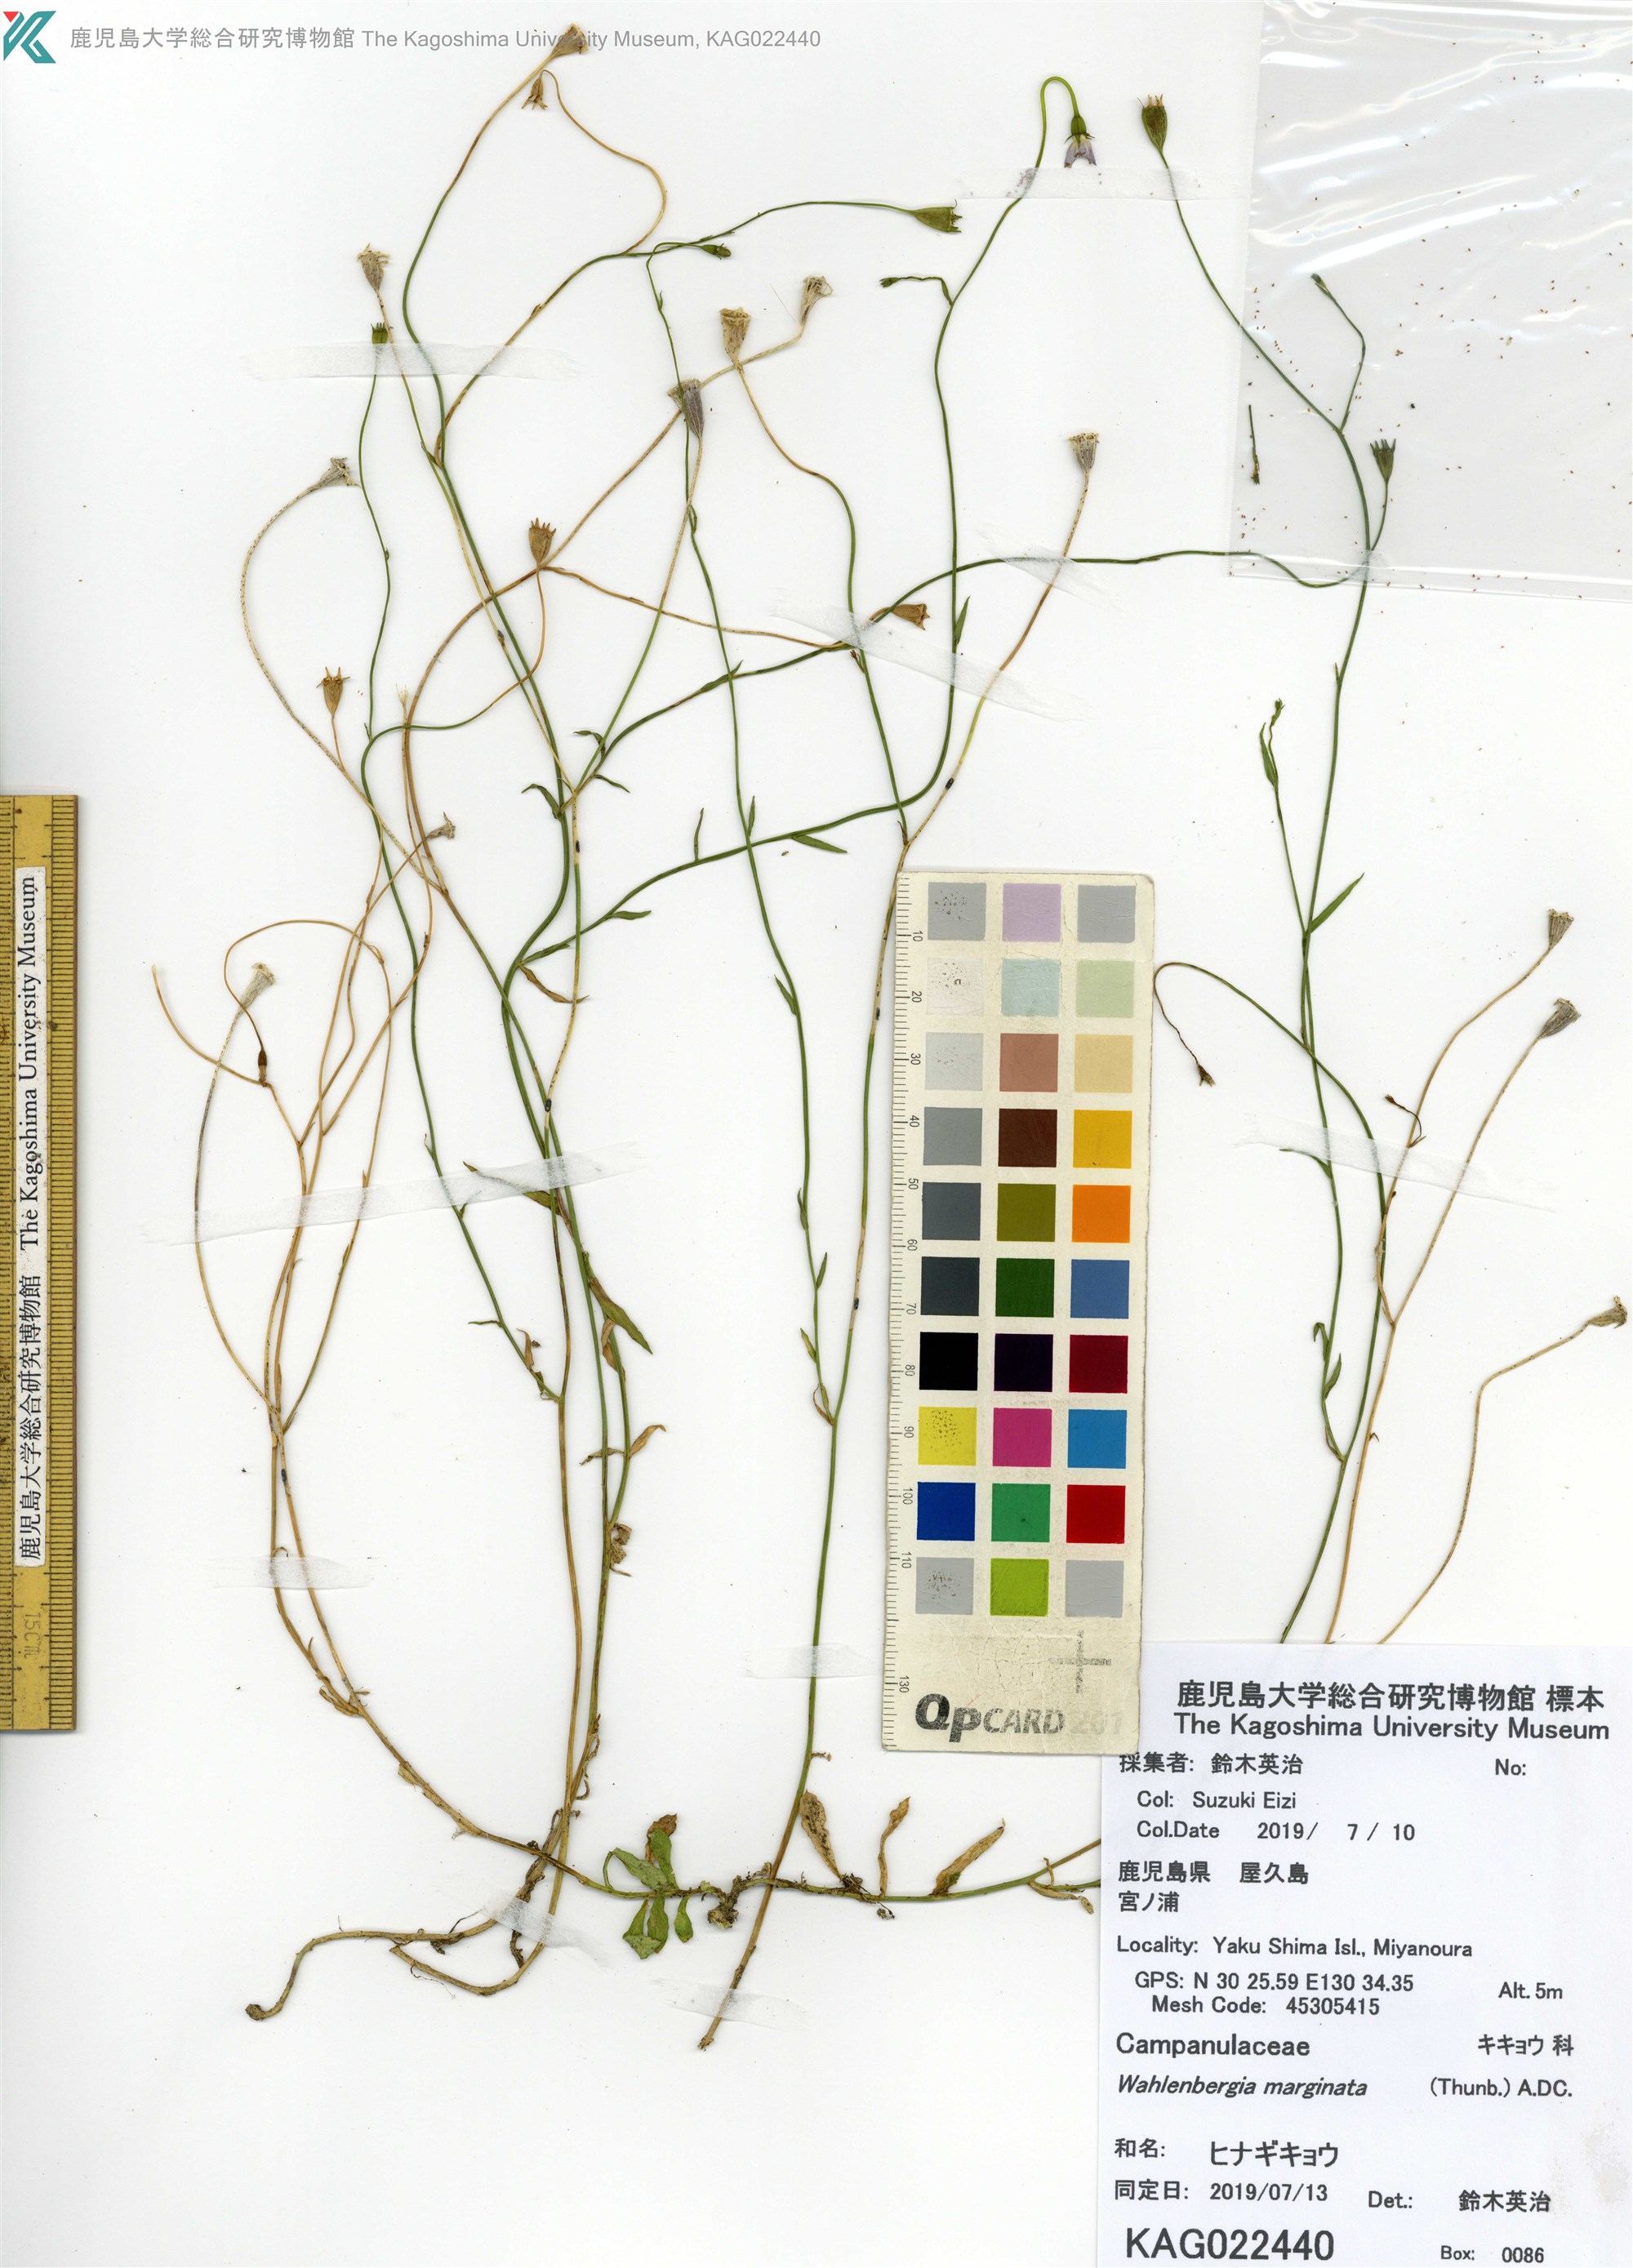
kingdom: Plantae
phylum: Tracheophyta
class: Magnoliopsida
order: Asterales
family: Campanulaceae
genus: Wahlenbergia
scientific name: Wahlenbergia marginata
